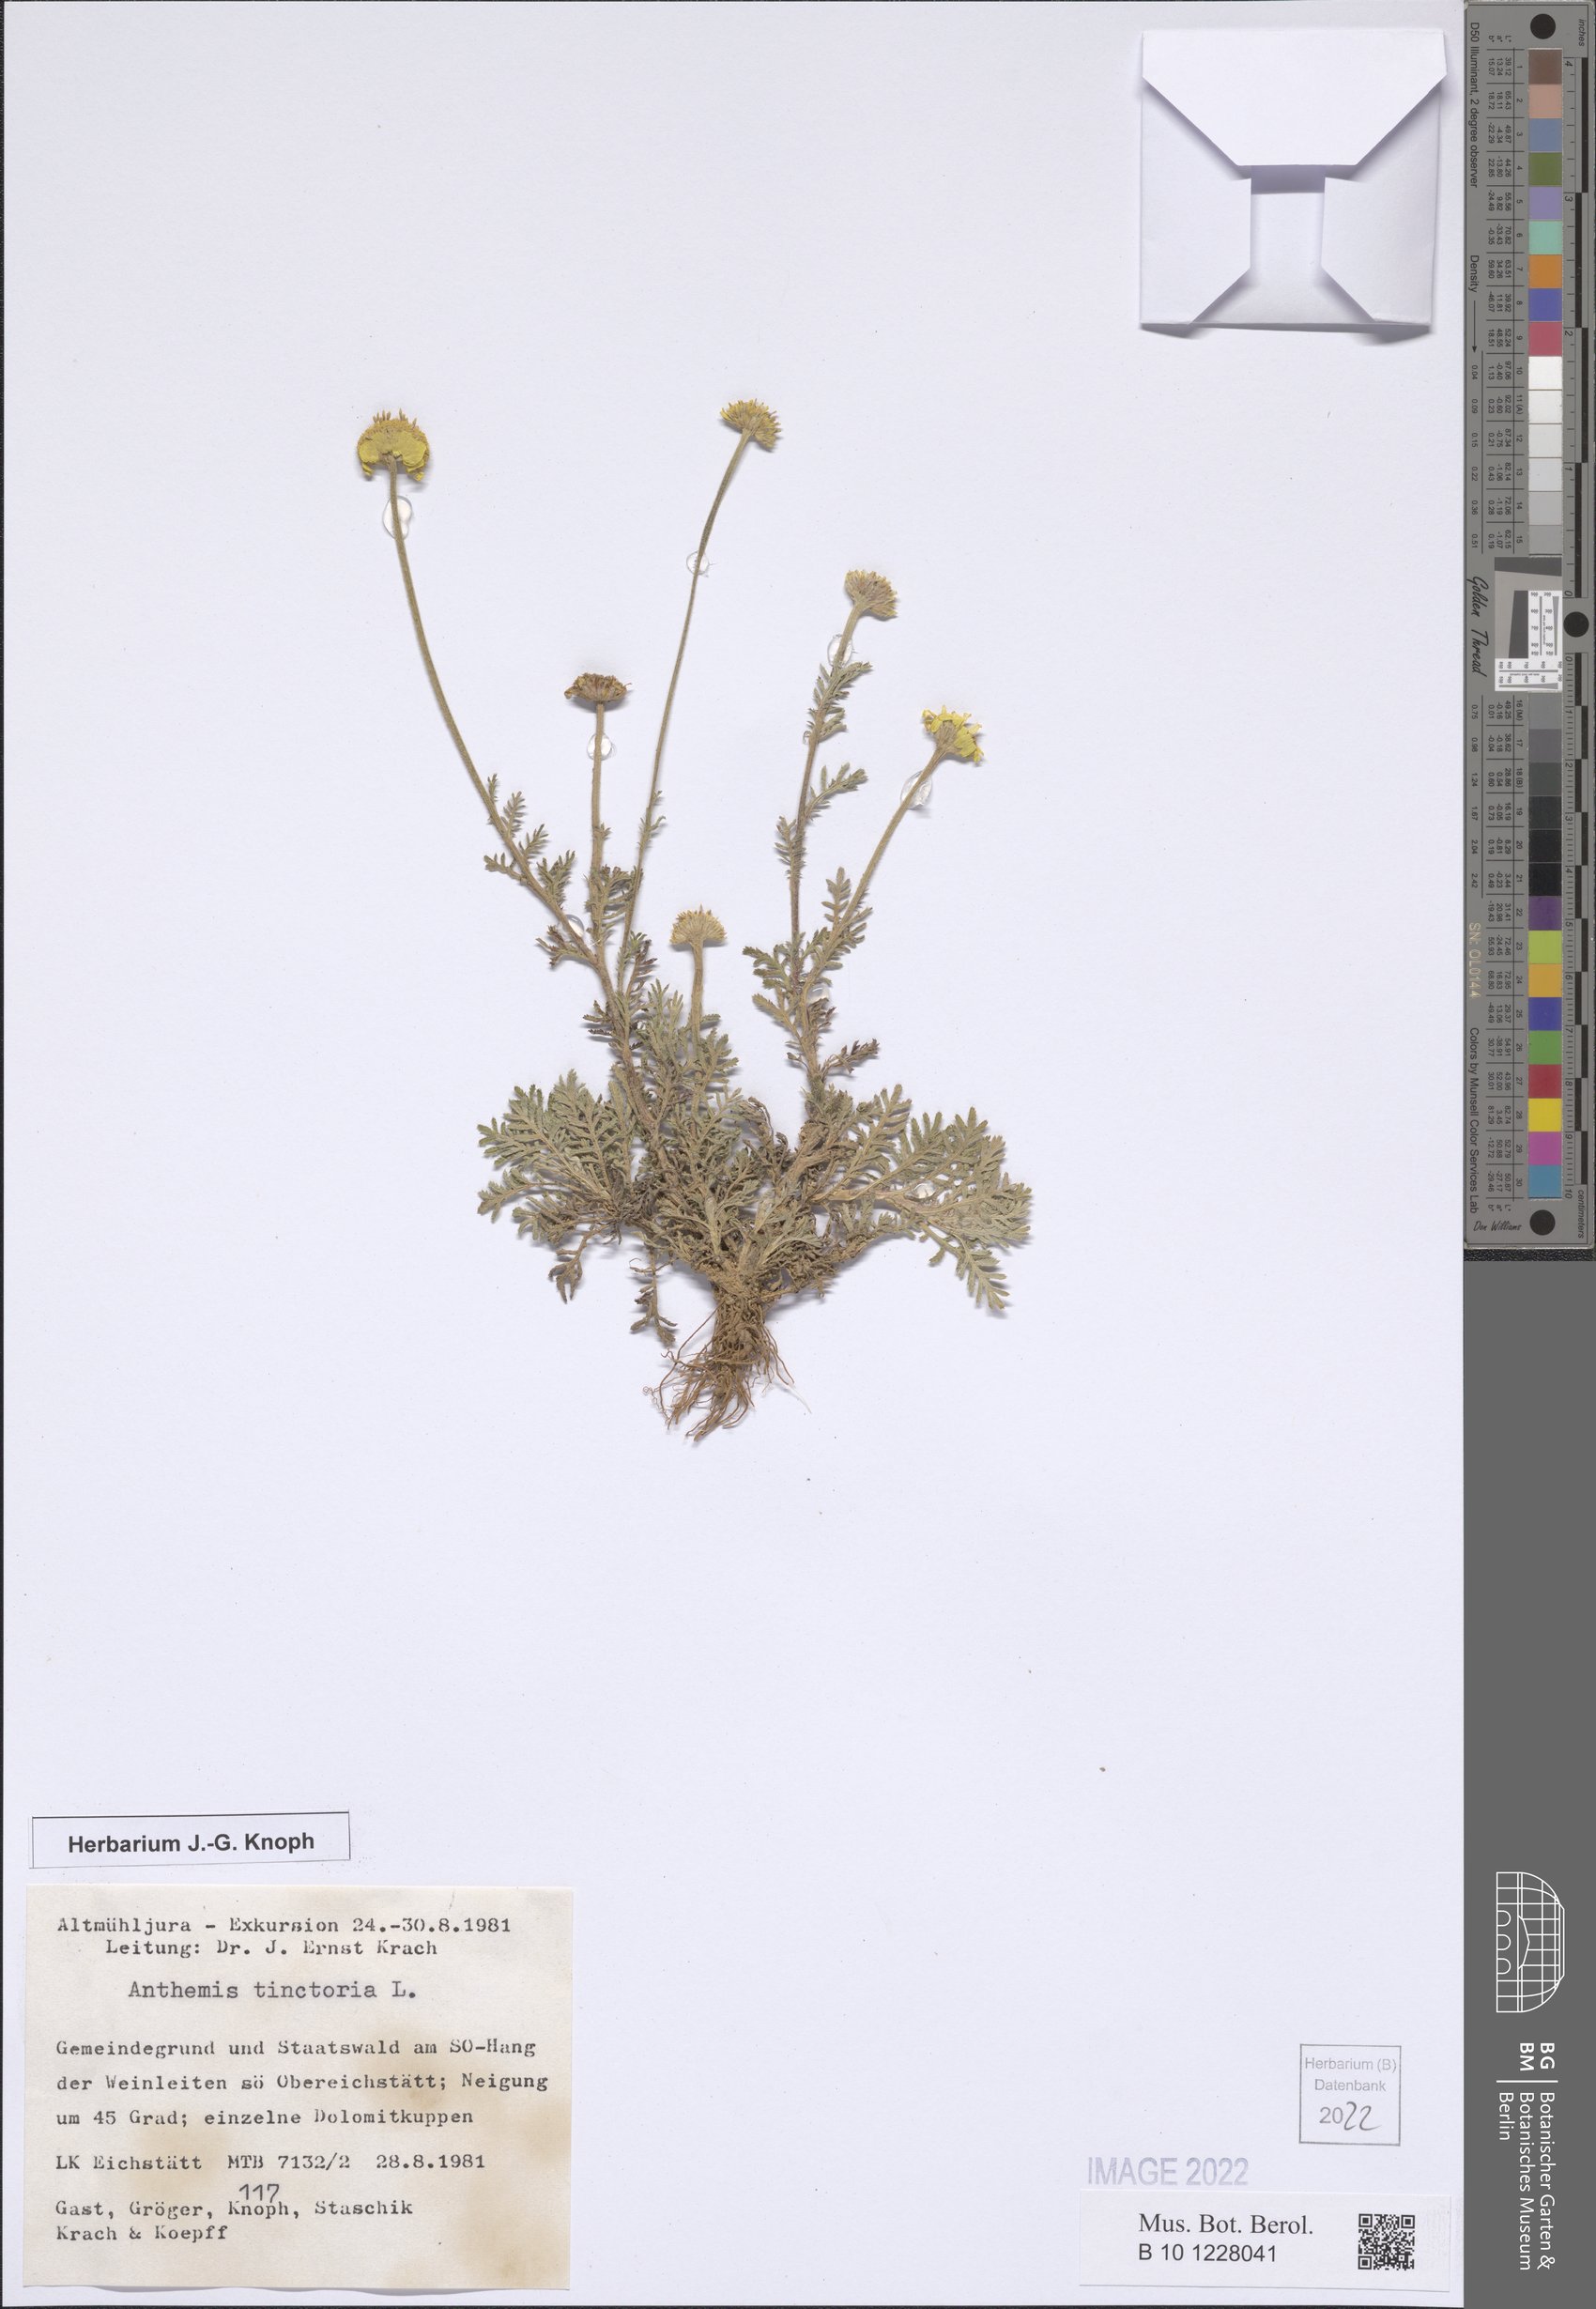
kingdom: Plantae
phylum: Tracheophyta
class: Magnoliopsida
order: Asterales
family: Asteraceae
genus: Cota
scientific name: Cota tinctoria
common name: Golden chamomile
